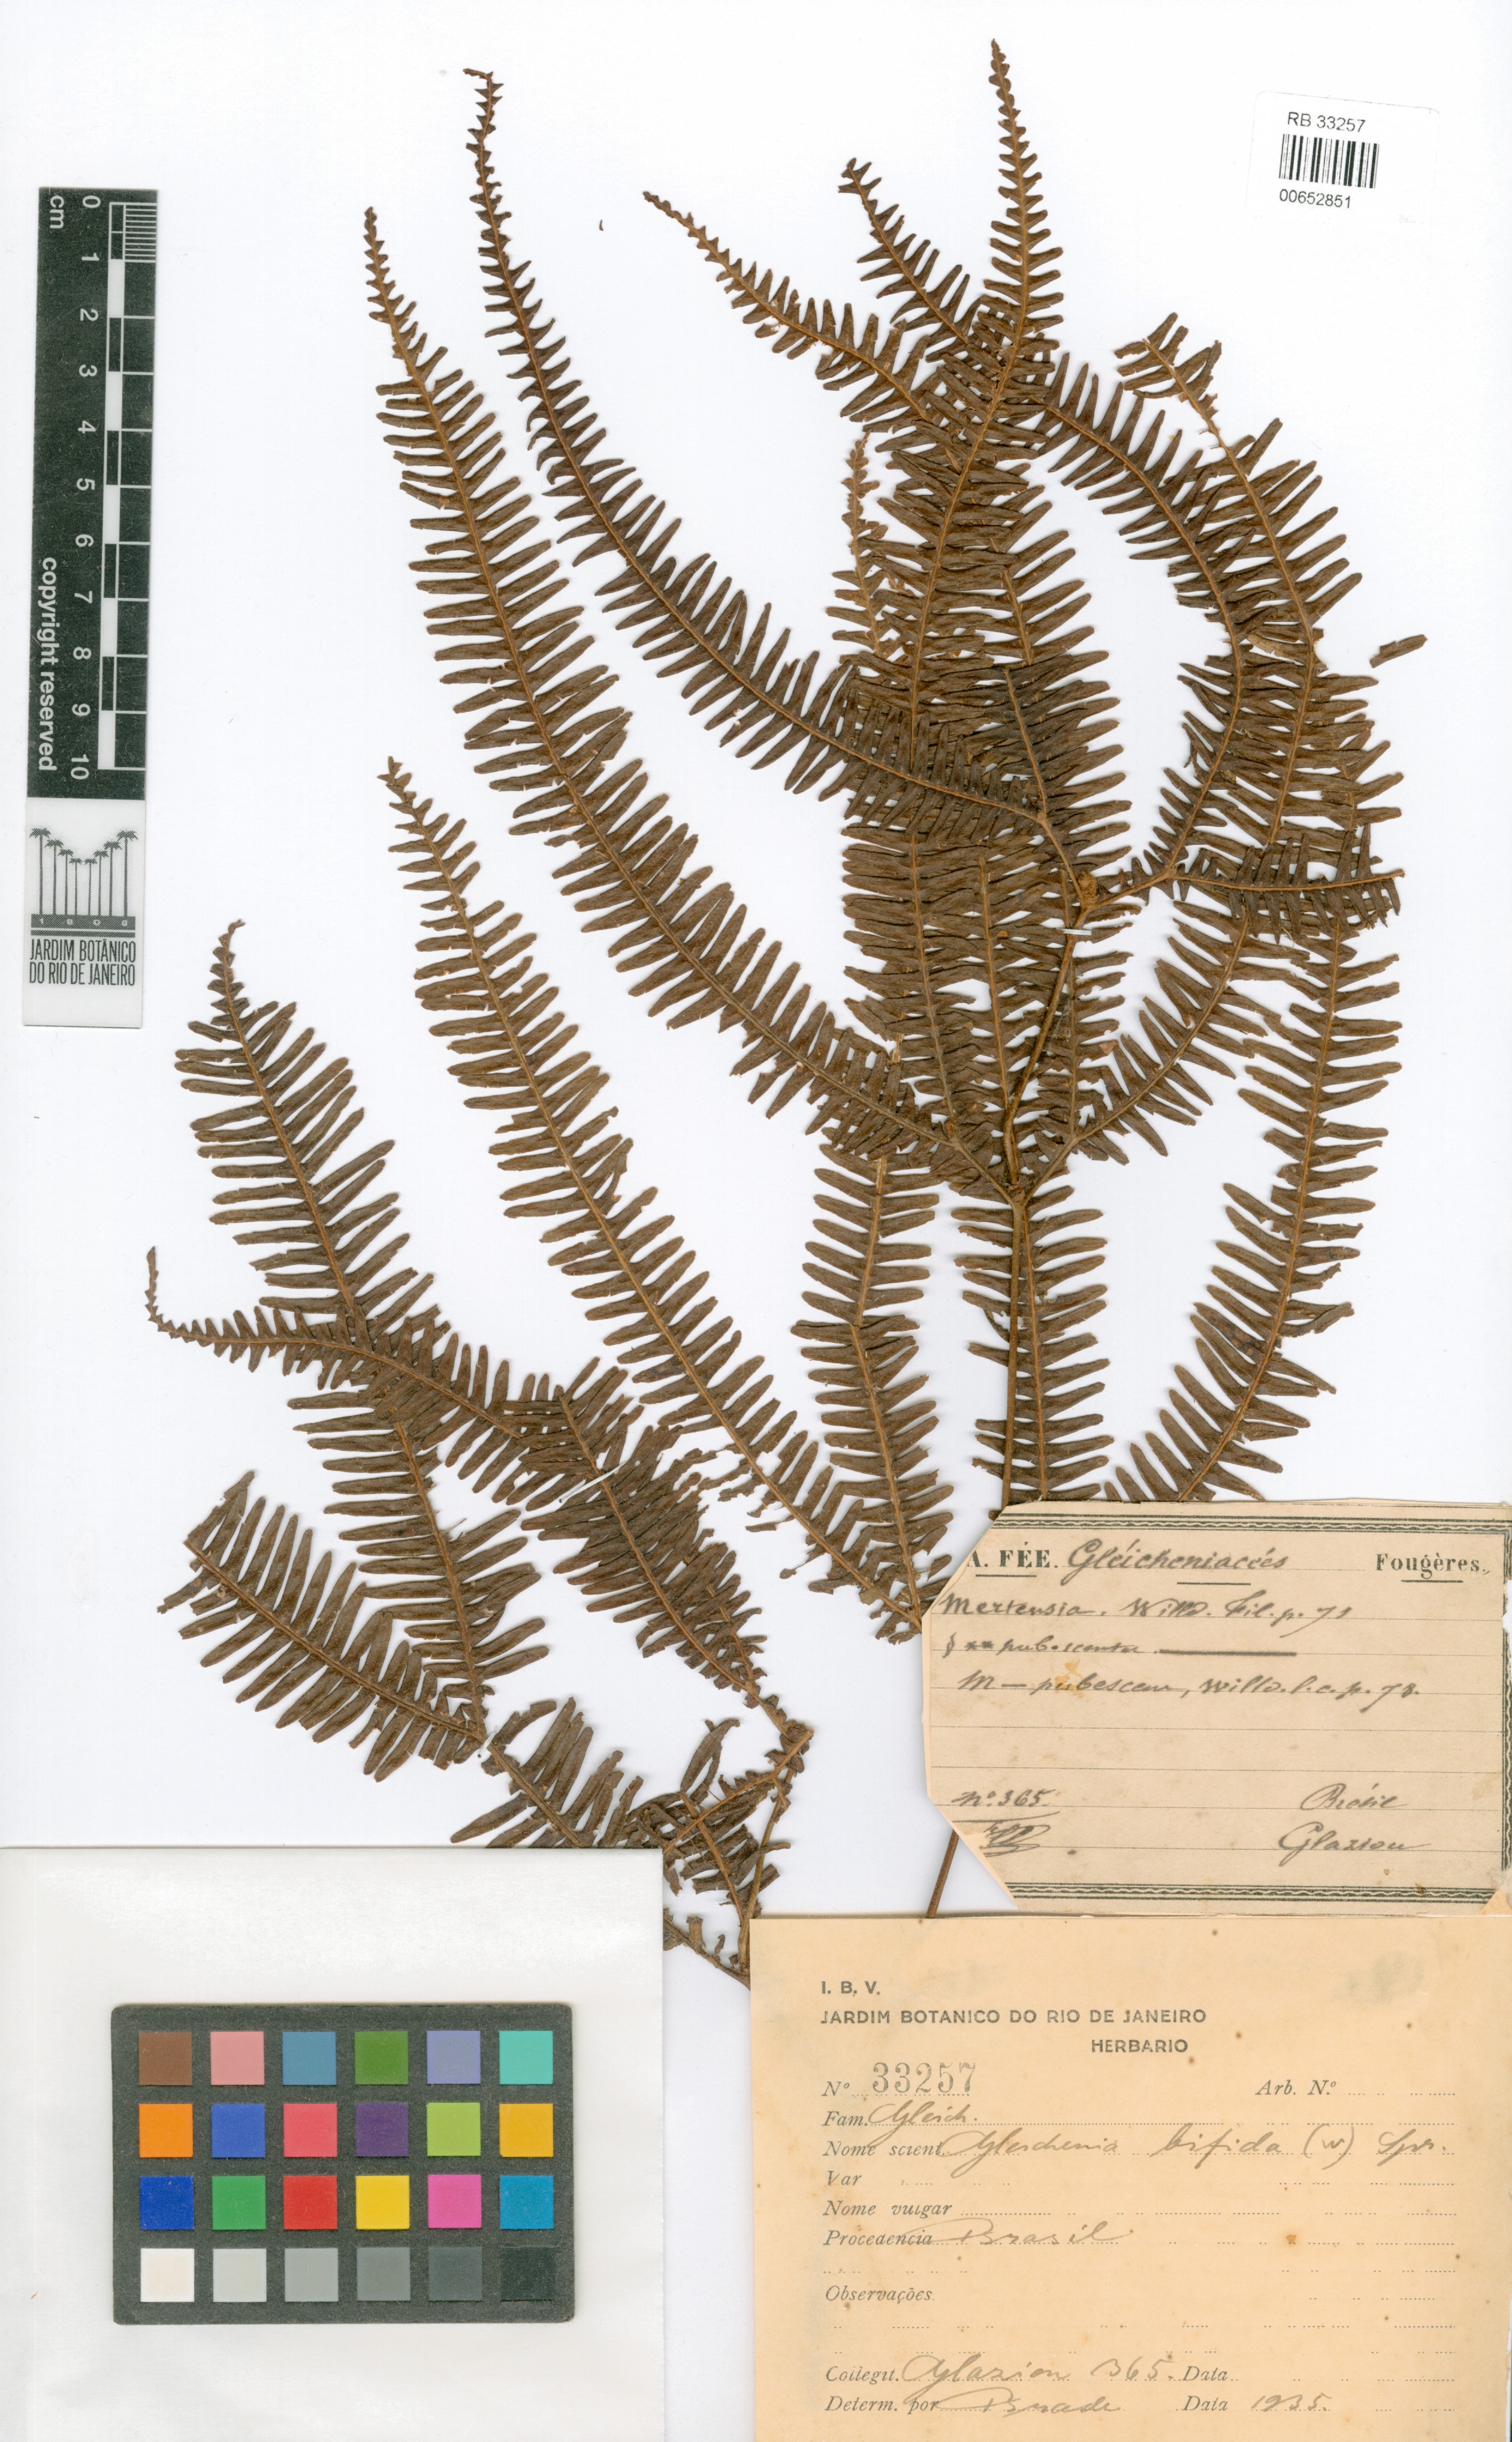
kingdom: Plantae
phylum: Tracheophyta
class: Polypodiopsida
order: Gleicheniales
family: Gleicheniaceae
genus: Sticherus
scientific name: Sticherus bifidus
